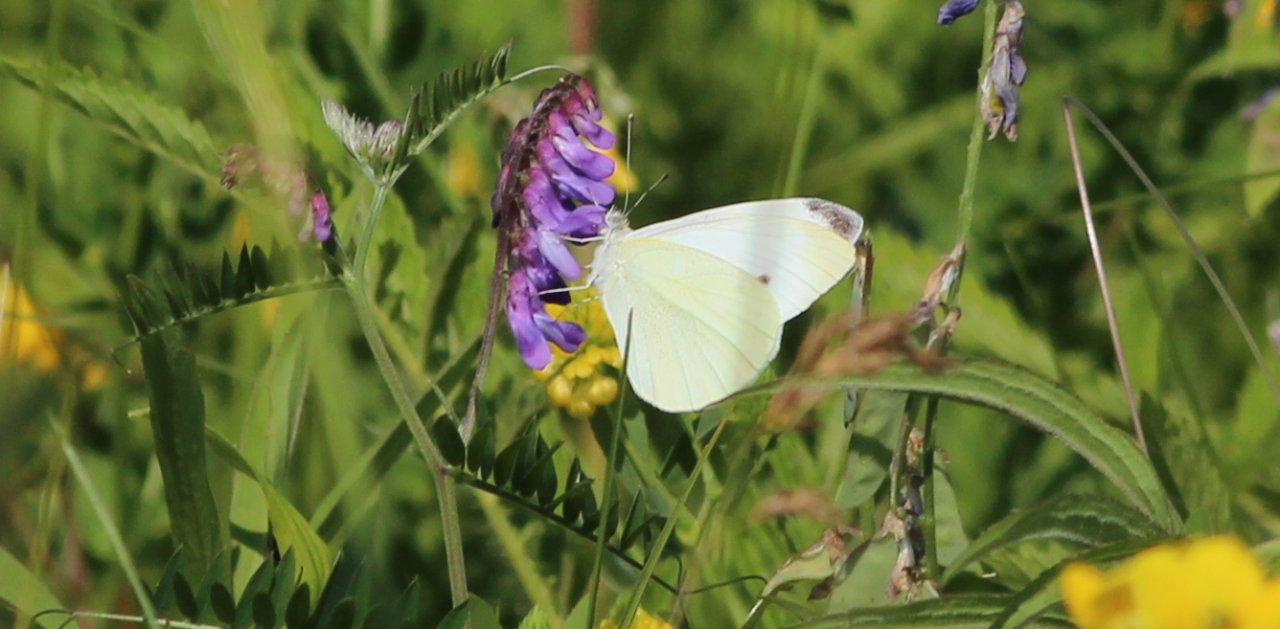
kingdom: Animalia
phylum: Arthropoda
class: Insecta
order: Lepidoptera
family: Pieridae
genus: Pontia
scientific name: Pontia protodice
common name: Checkered White
